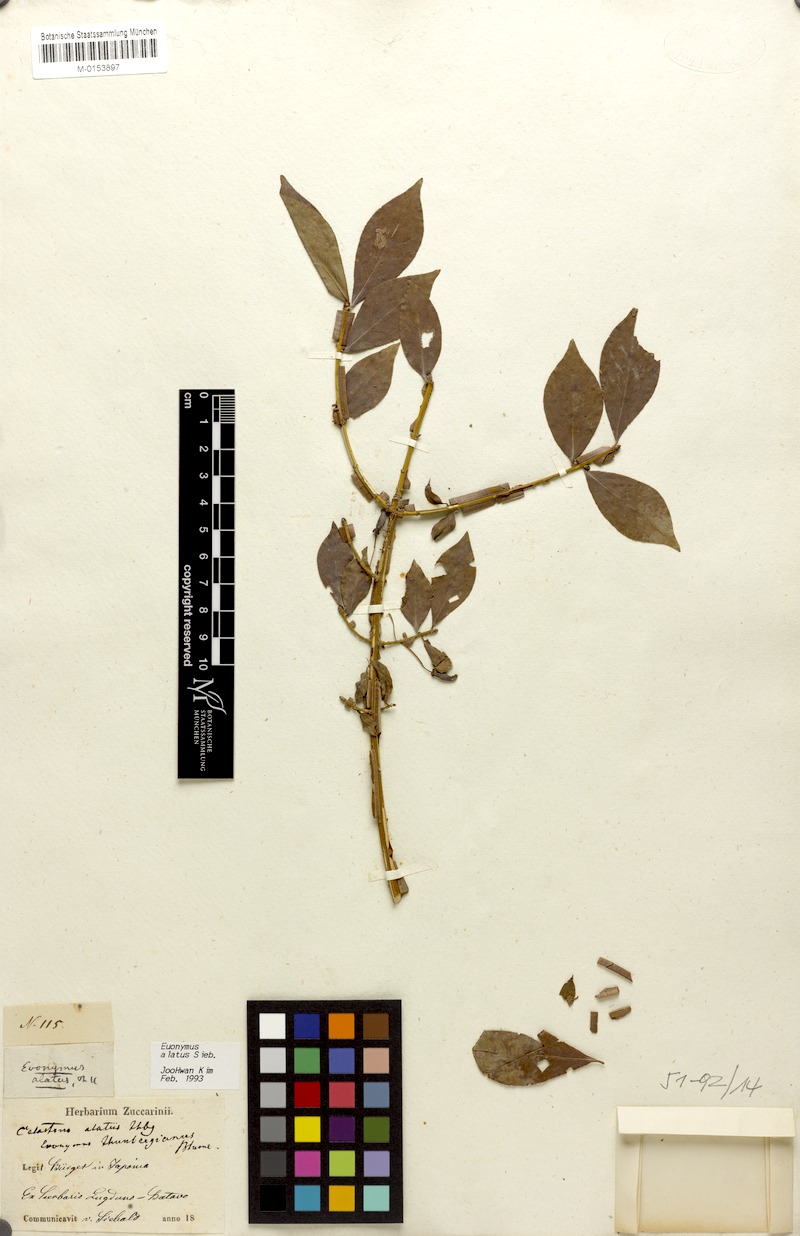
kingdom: Plantae
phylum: Tracheophyta
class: Magnoliopsida
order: Celastrales
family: Celastraceae
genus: Euonymus
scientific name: Euonymus alatus
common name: Winged euonymus
